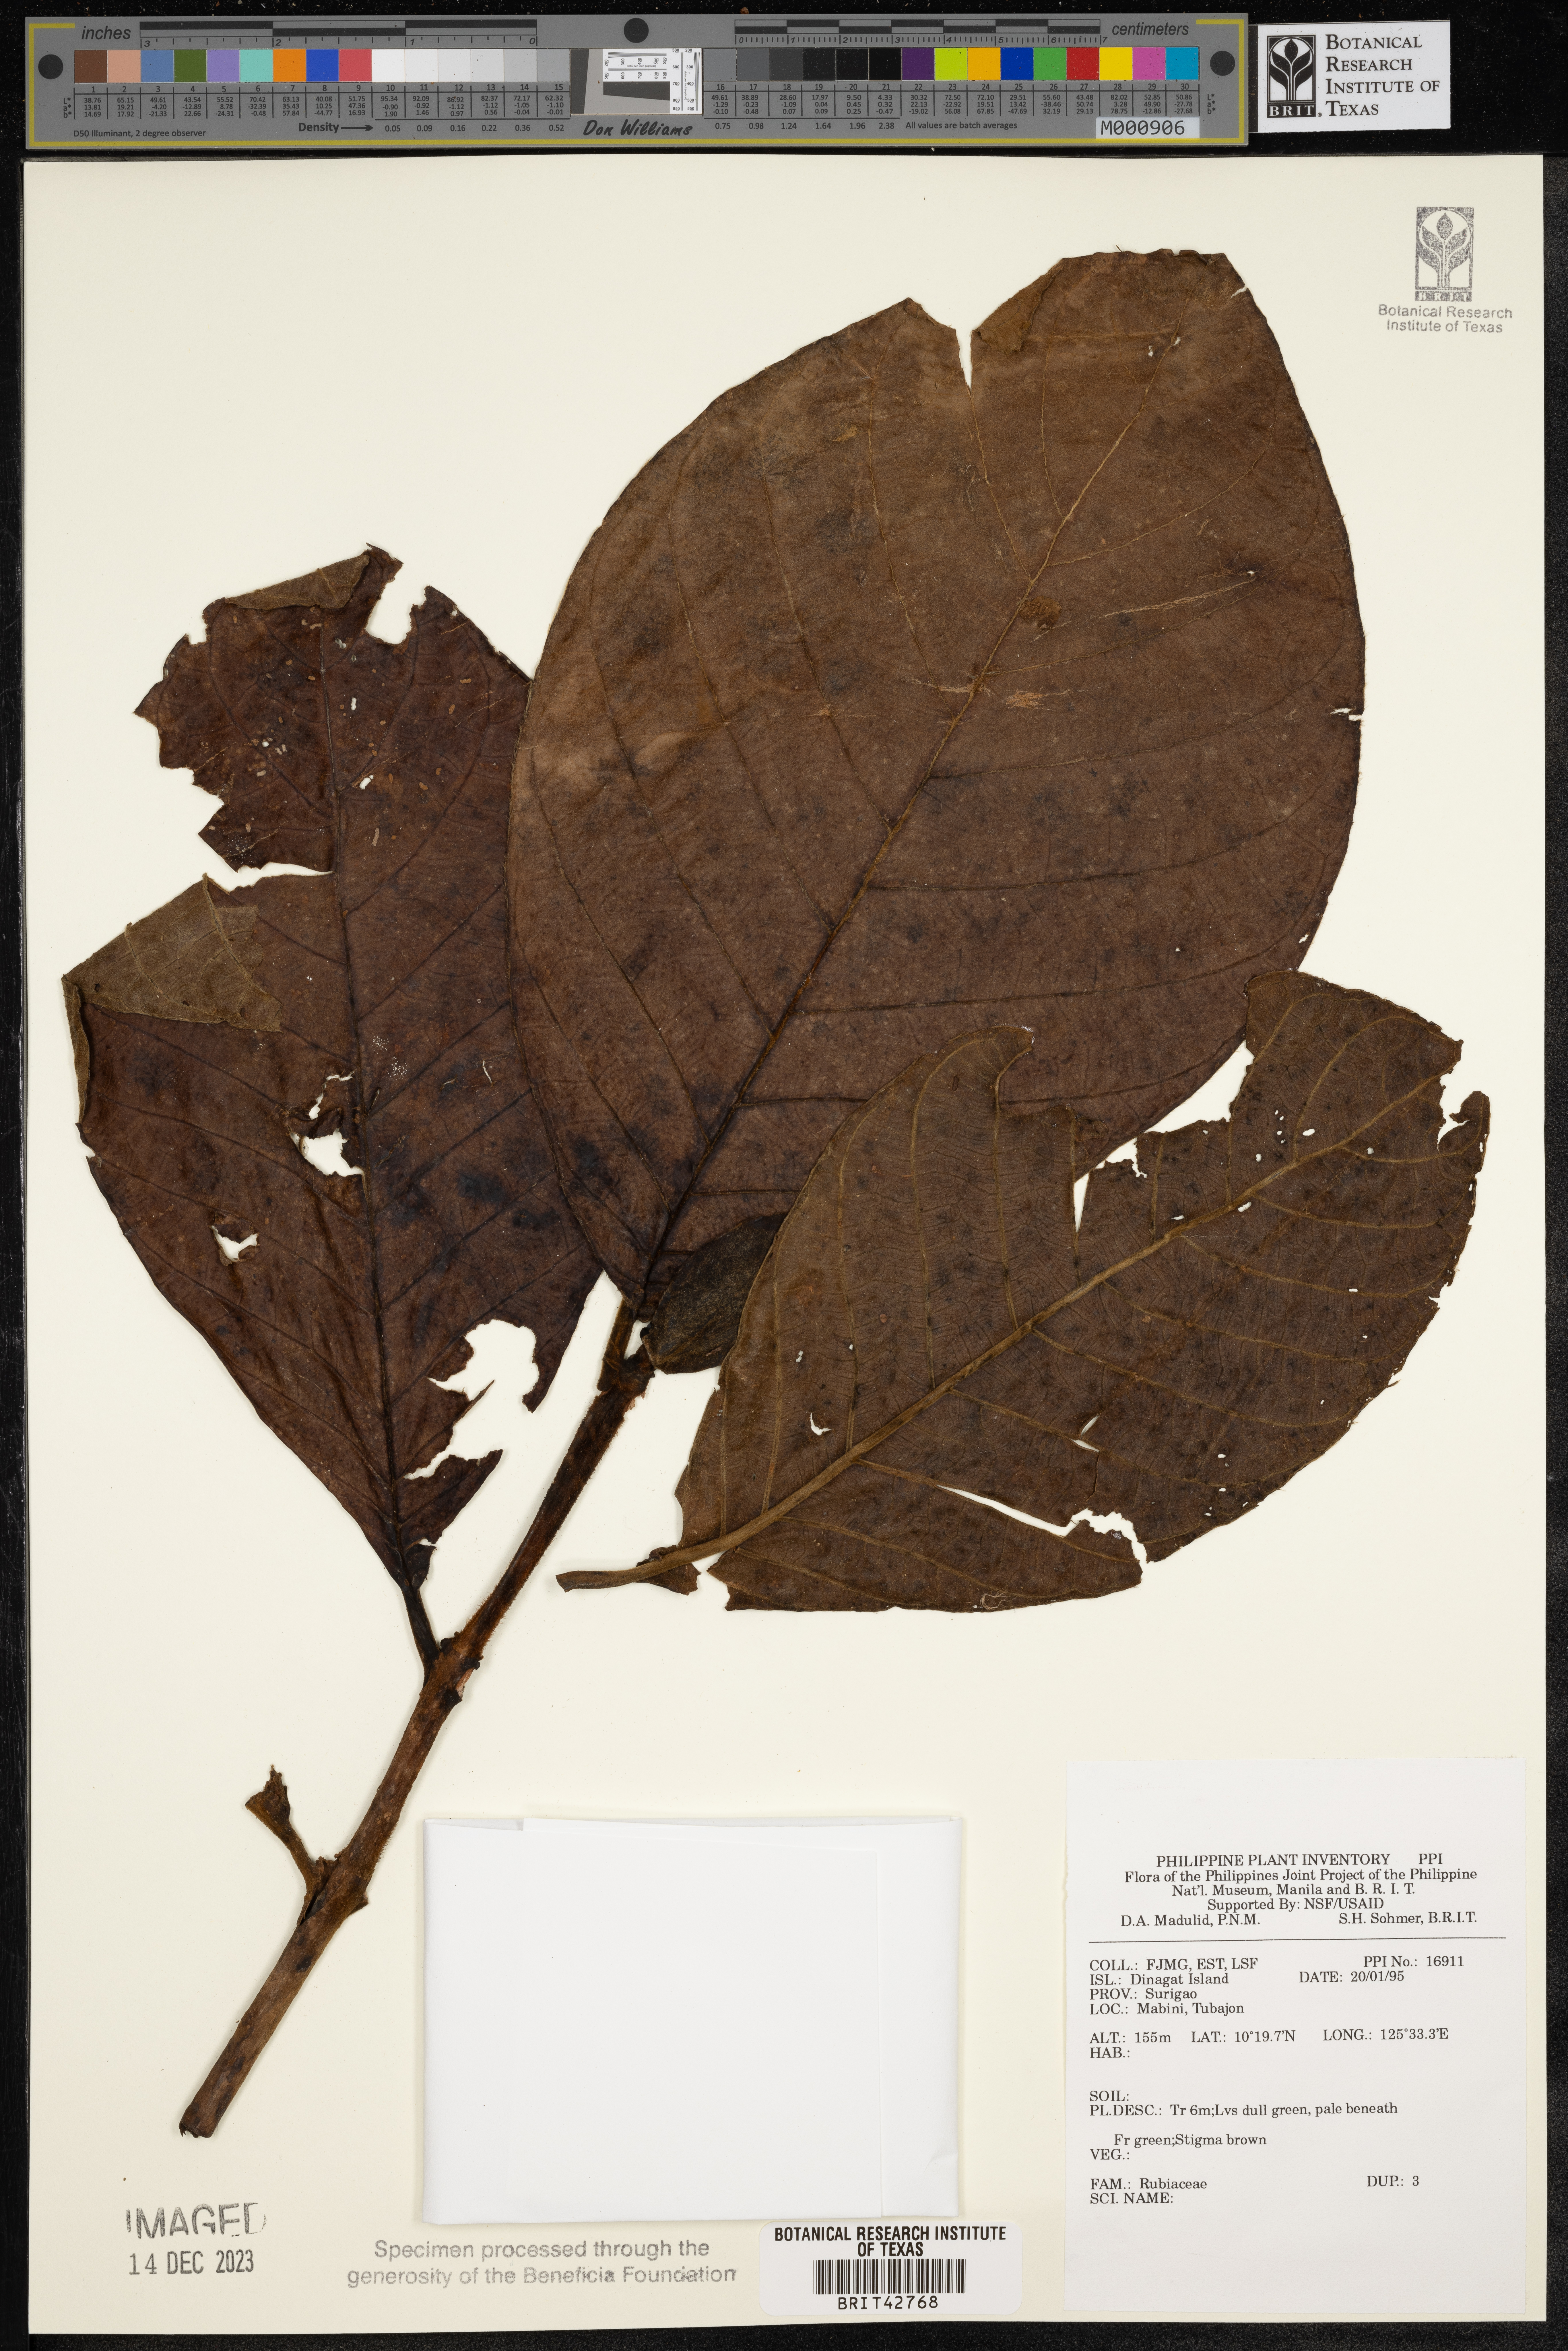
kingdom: Plantae
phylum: Tracheophyta
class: Magnoliopsida
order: Gentianales
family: Rubiaceae
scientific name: Rubiaceae
